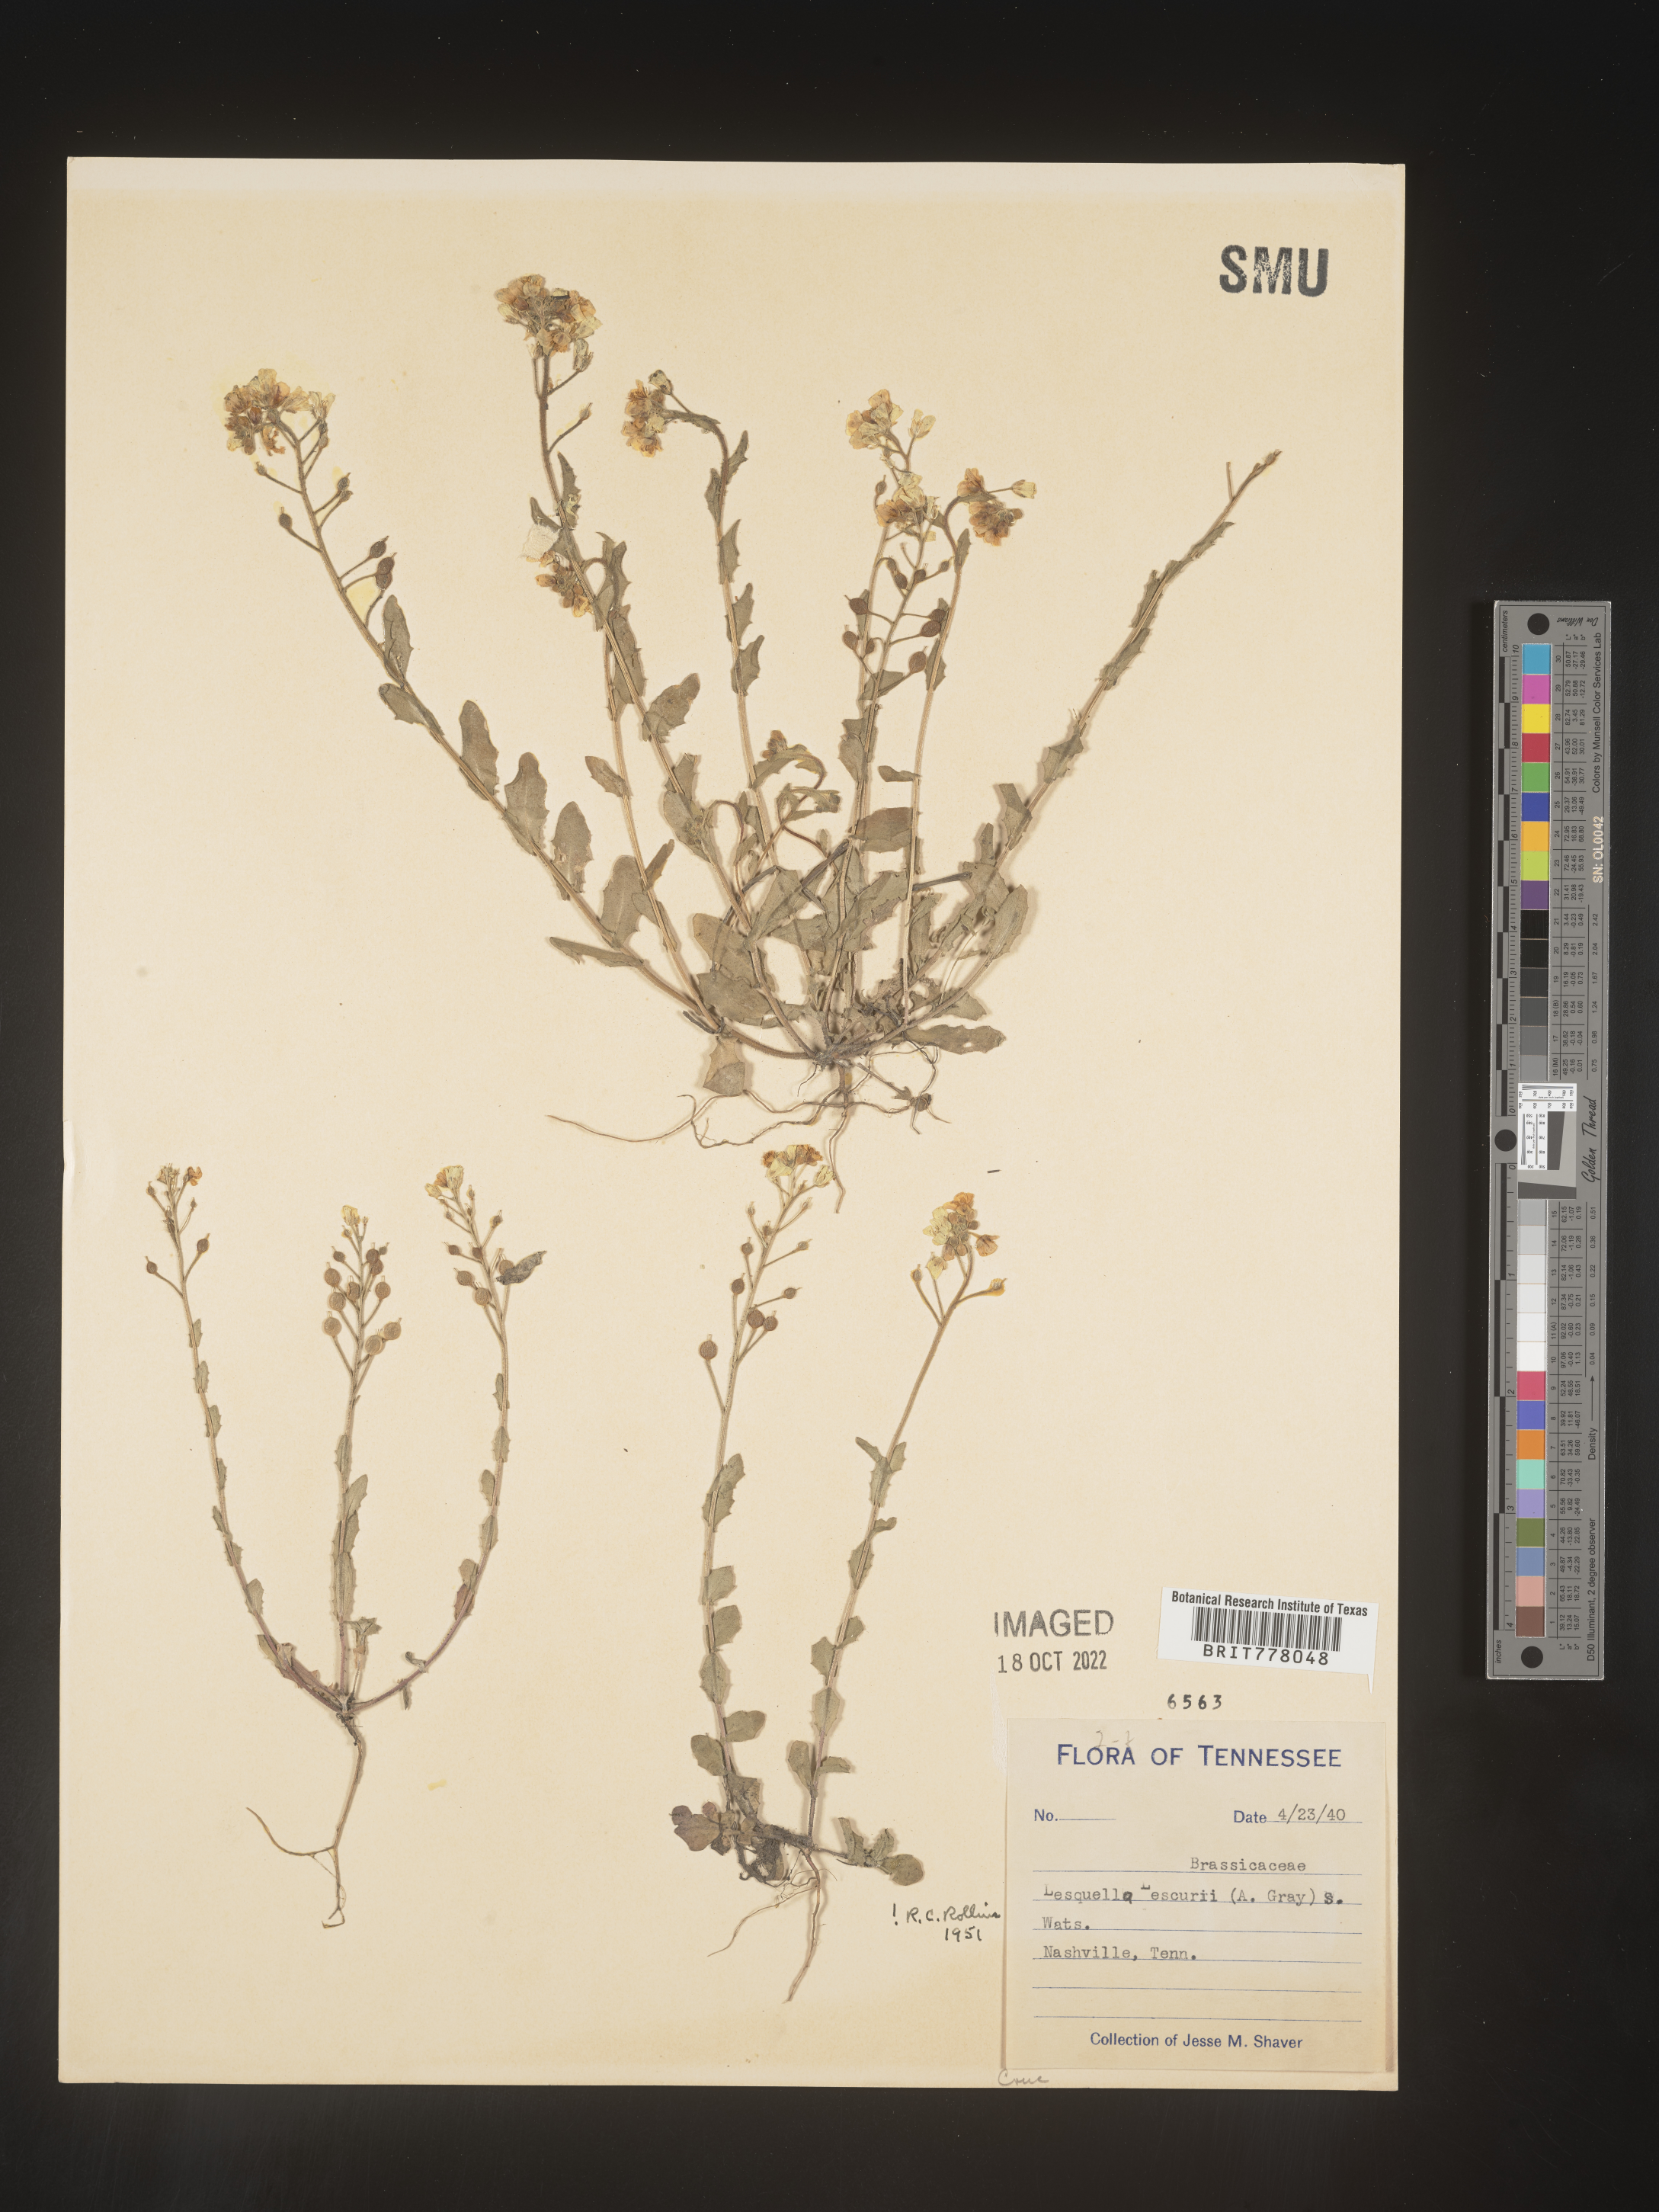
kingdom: Chromista
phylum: Cercozoa
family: Psammonobiotidae
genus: Lesquerella
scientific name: Lesquerella
